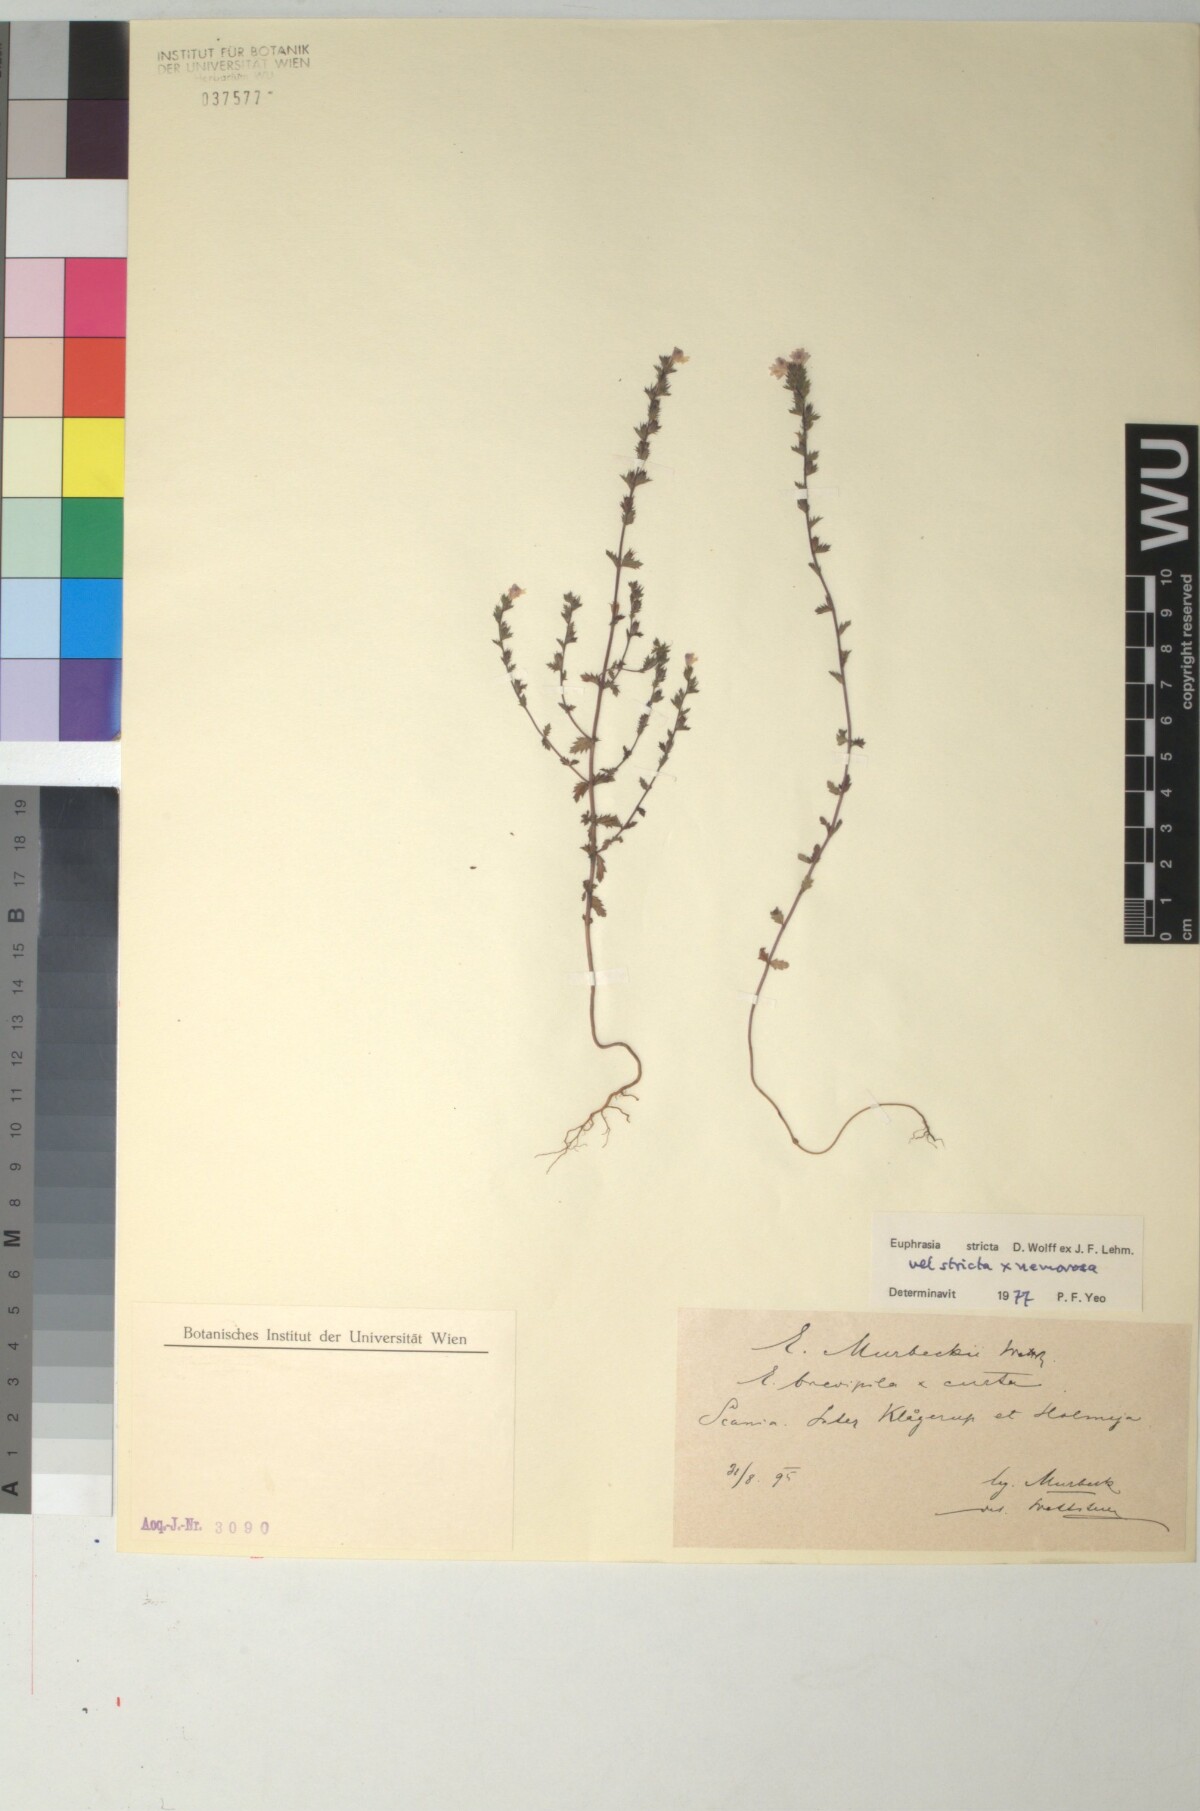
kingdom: Plantae
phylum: Tracheophyta
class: Magnoliopsida
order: Lamiales
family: Scrophulariaceae
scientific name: Scrophulariaceae
